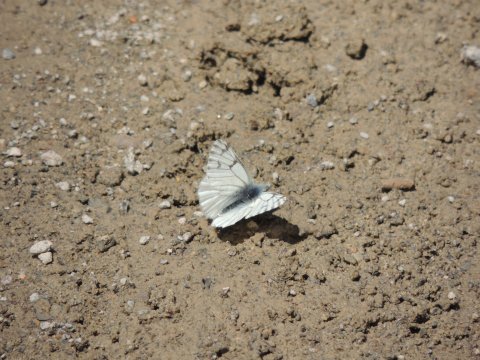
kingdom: Animalia
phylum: Arthropoda
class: Insecta
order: Lepidoptera
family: Pieridae
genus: Pontia
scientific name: Pontia sisymbrii
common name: Spring White
